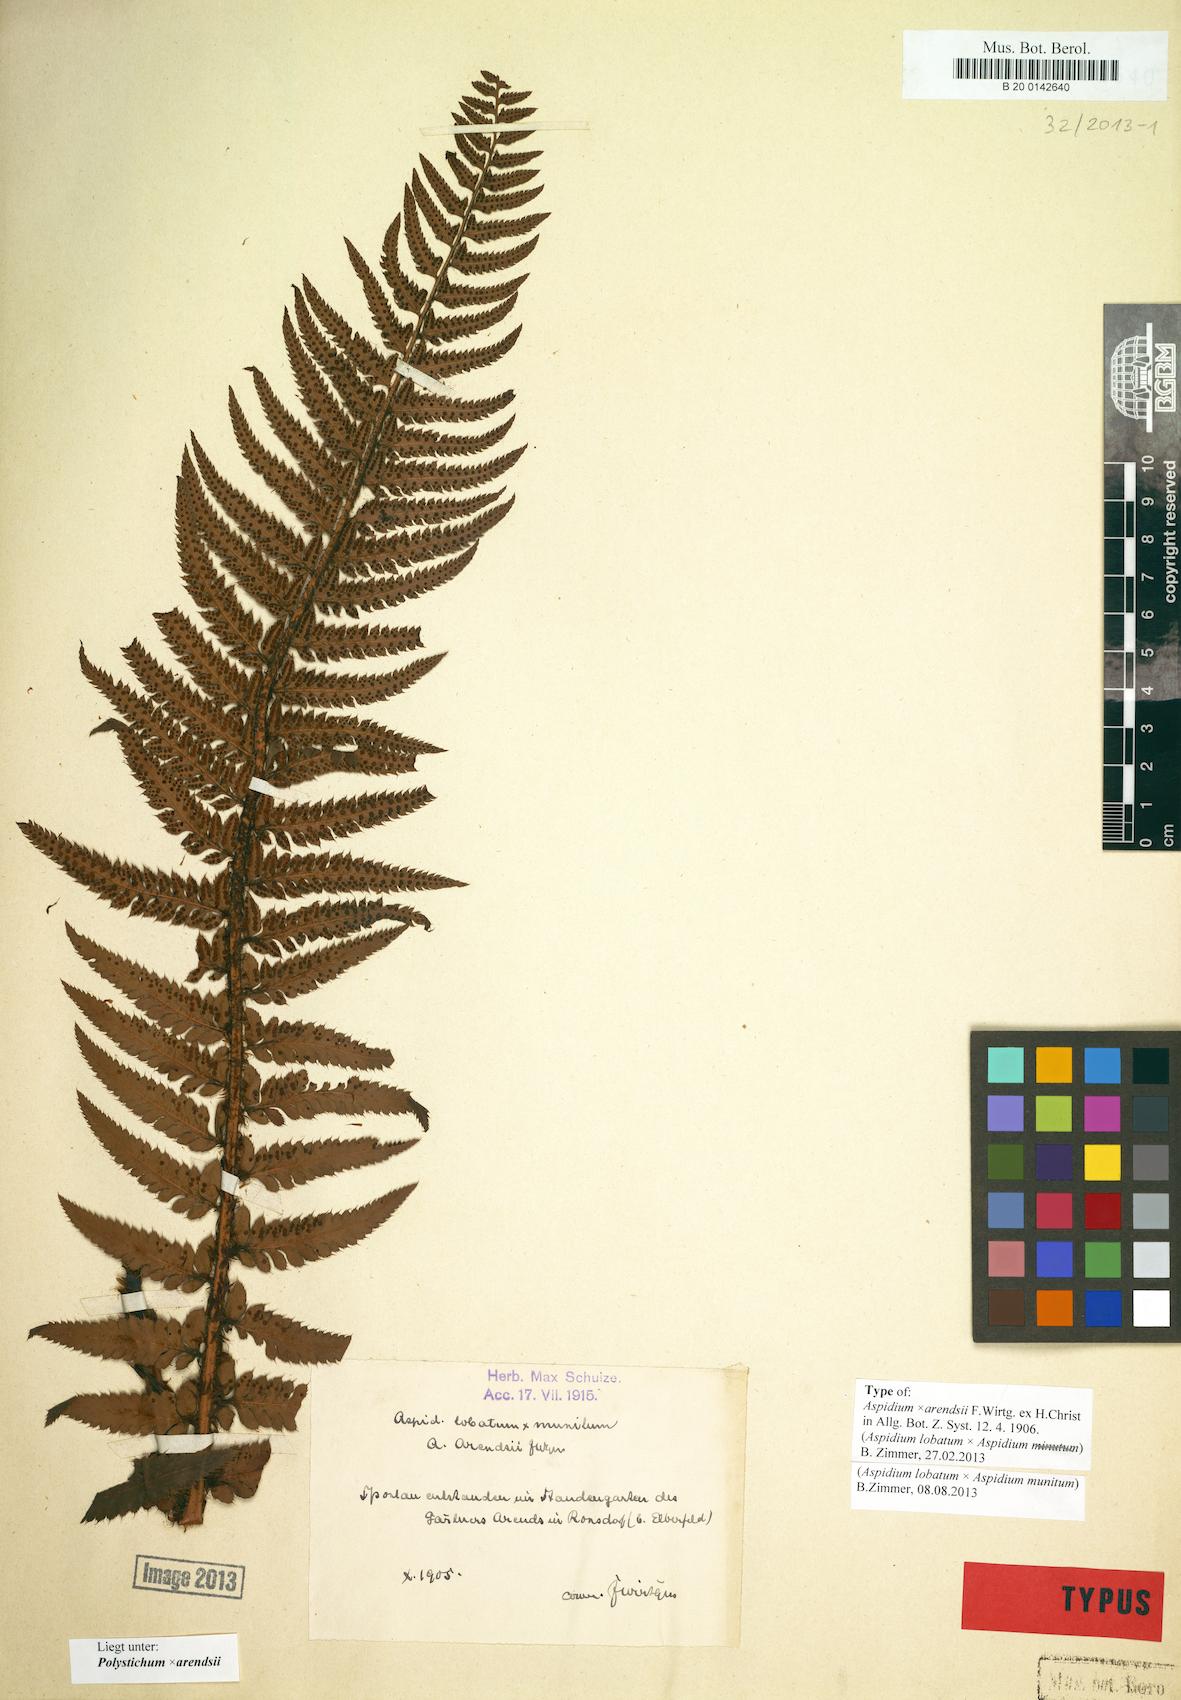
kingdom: Plantae
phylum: Tracheophyta
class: Polypodiopsida
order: Polypodiales
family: Dryopteridaceae
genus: Polystichum
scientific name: Polystichum
